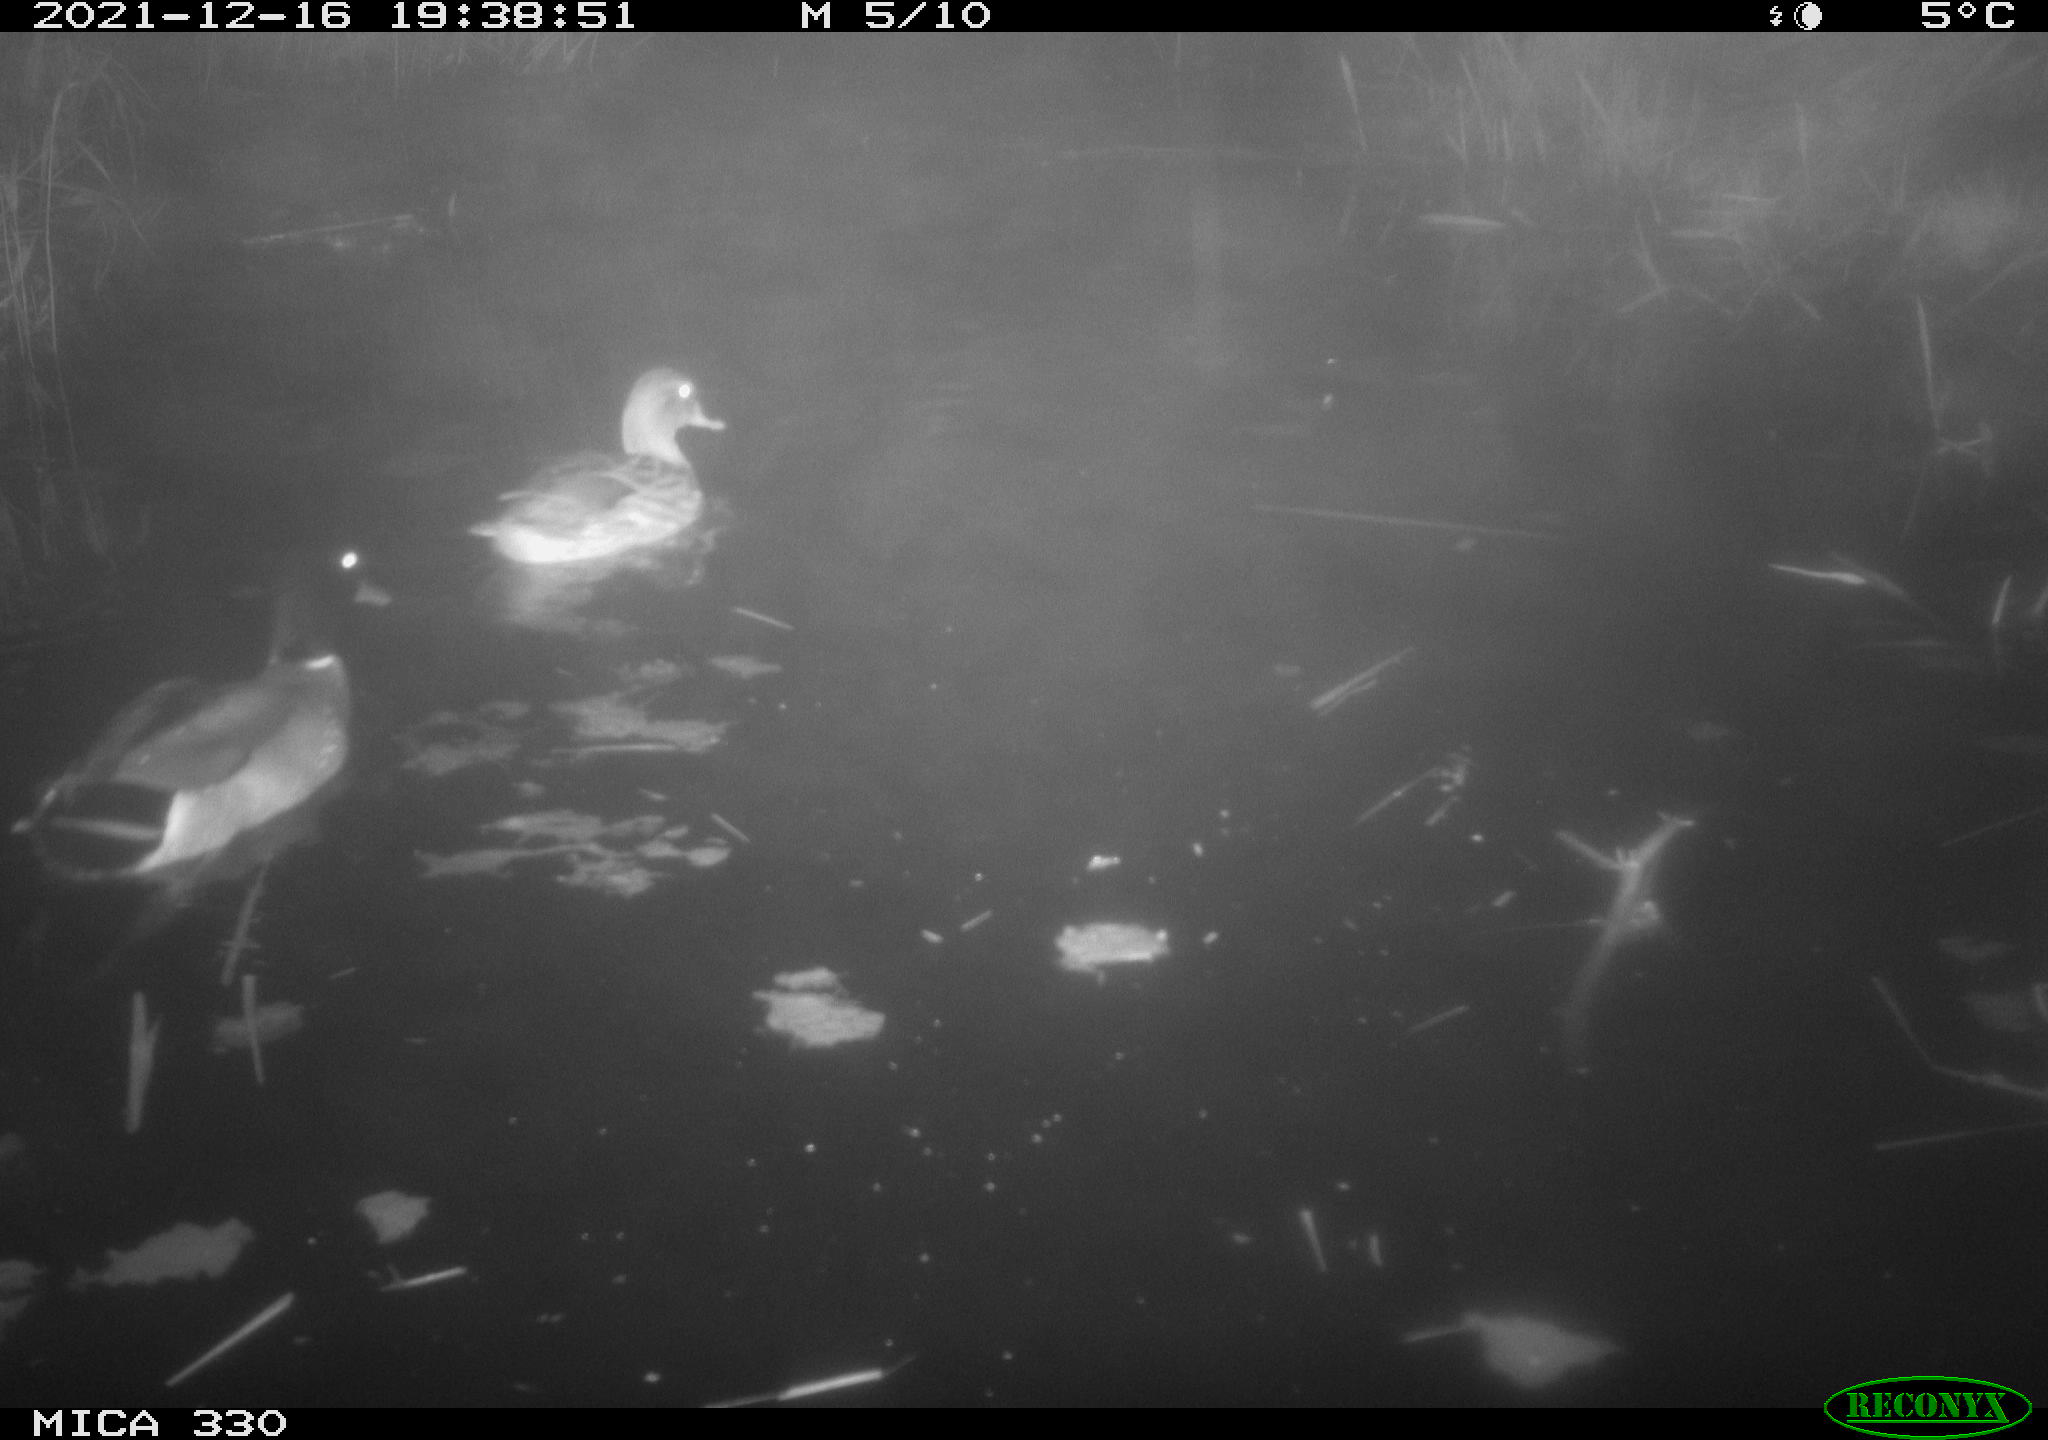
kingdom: Animalia
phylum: Chordata
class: Aves
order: Anseriformes
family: Anatidae
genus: Anas
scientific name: Anas platyrhynchos
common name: Mallard
